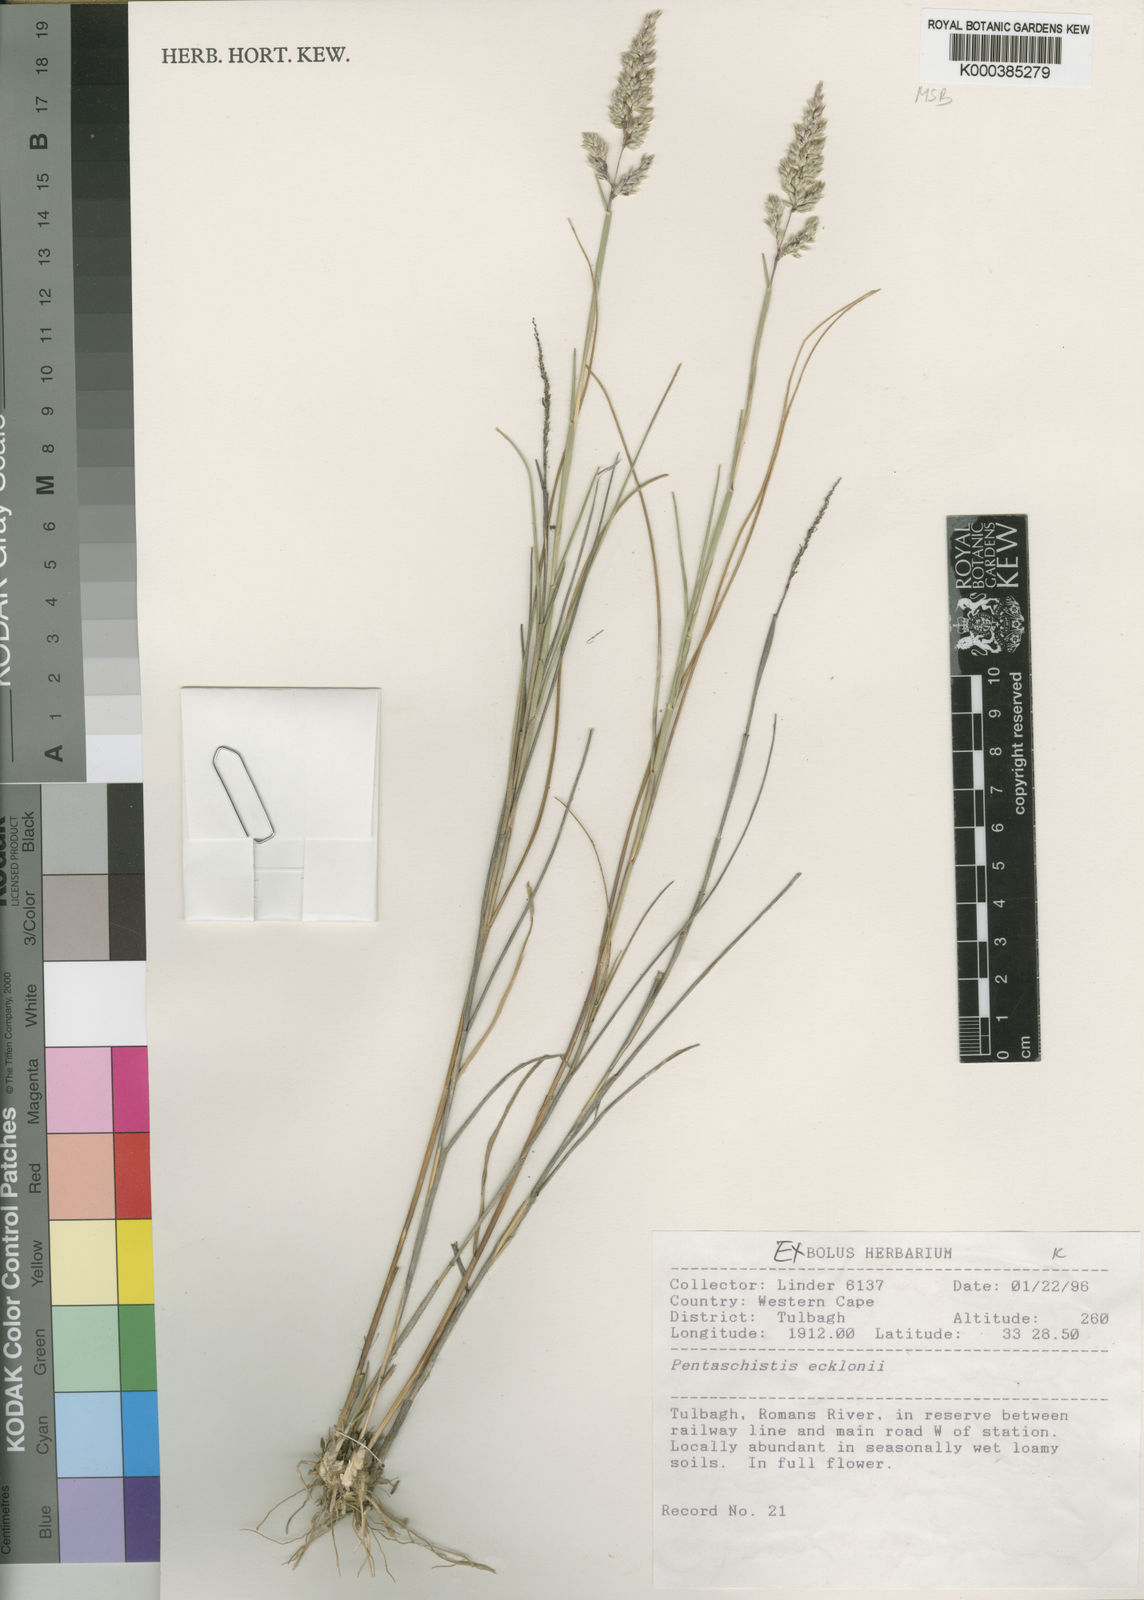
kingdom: Plantae
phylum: Tracheophyta
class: Liliopsida
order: Poales
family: Poaceae
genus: Pentameris
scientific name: Pentameris ecklonii
